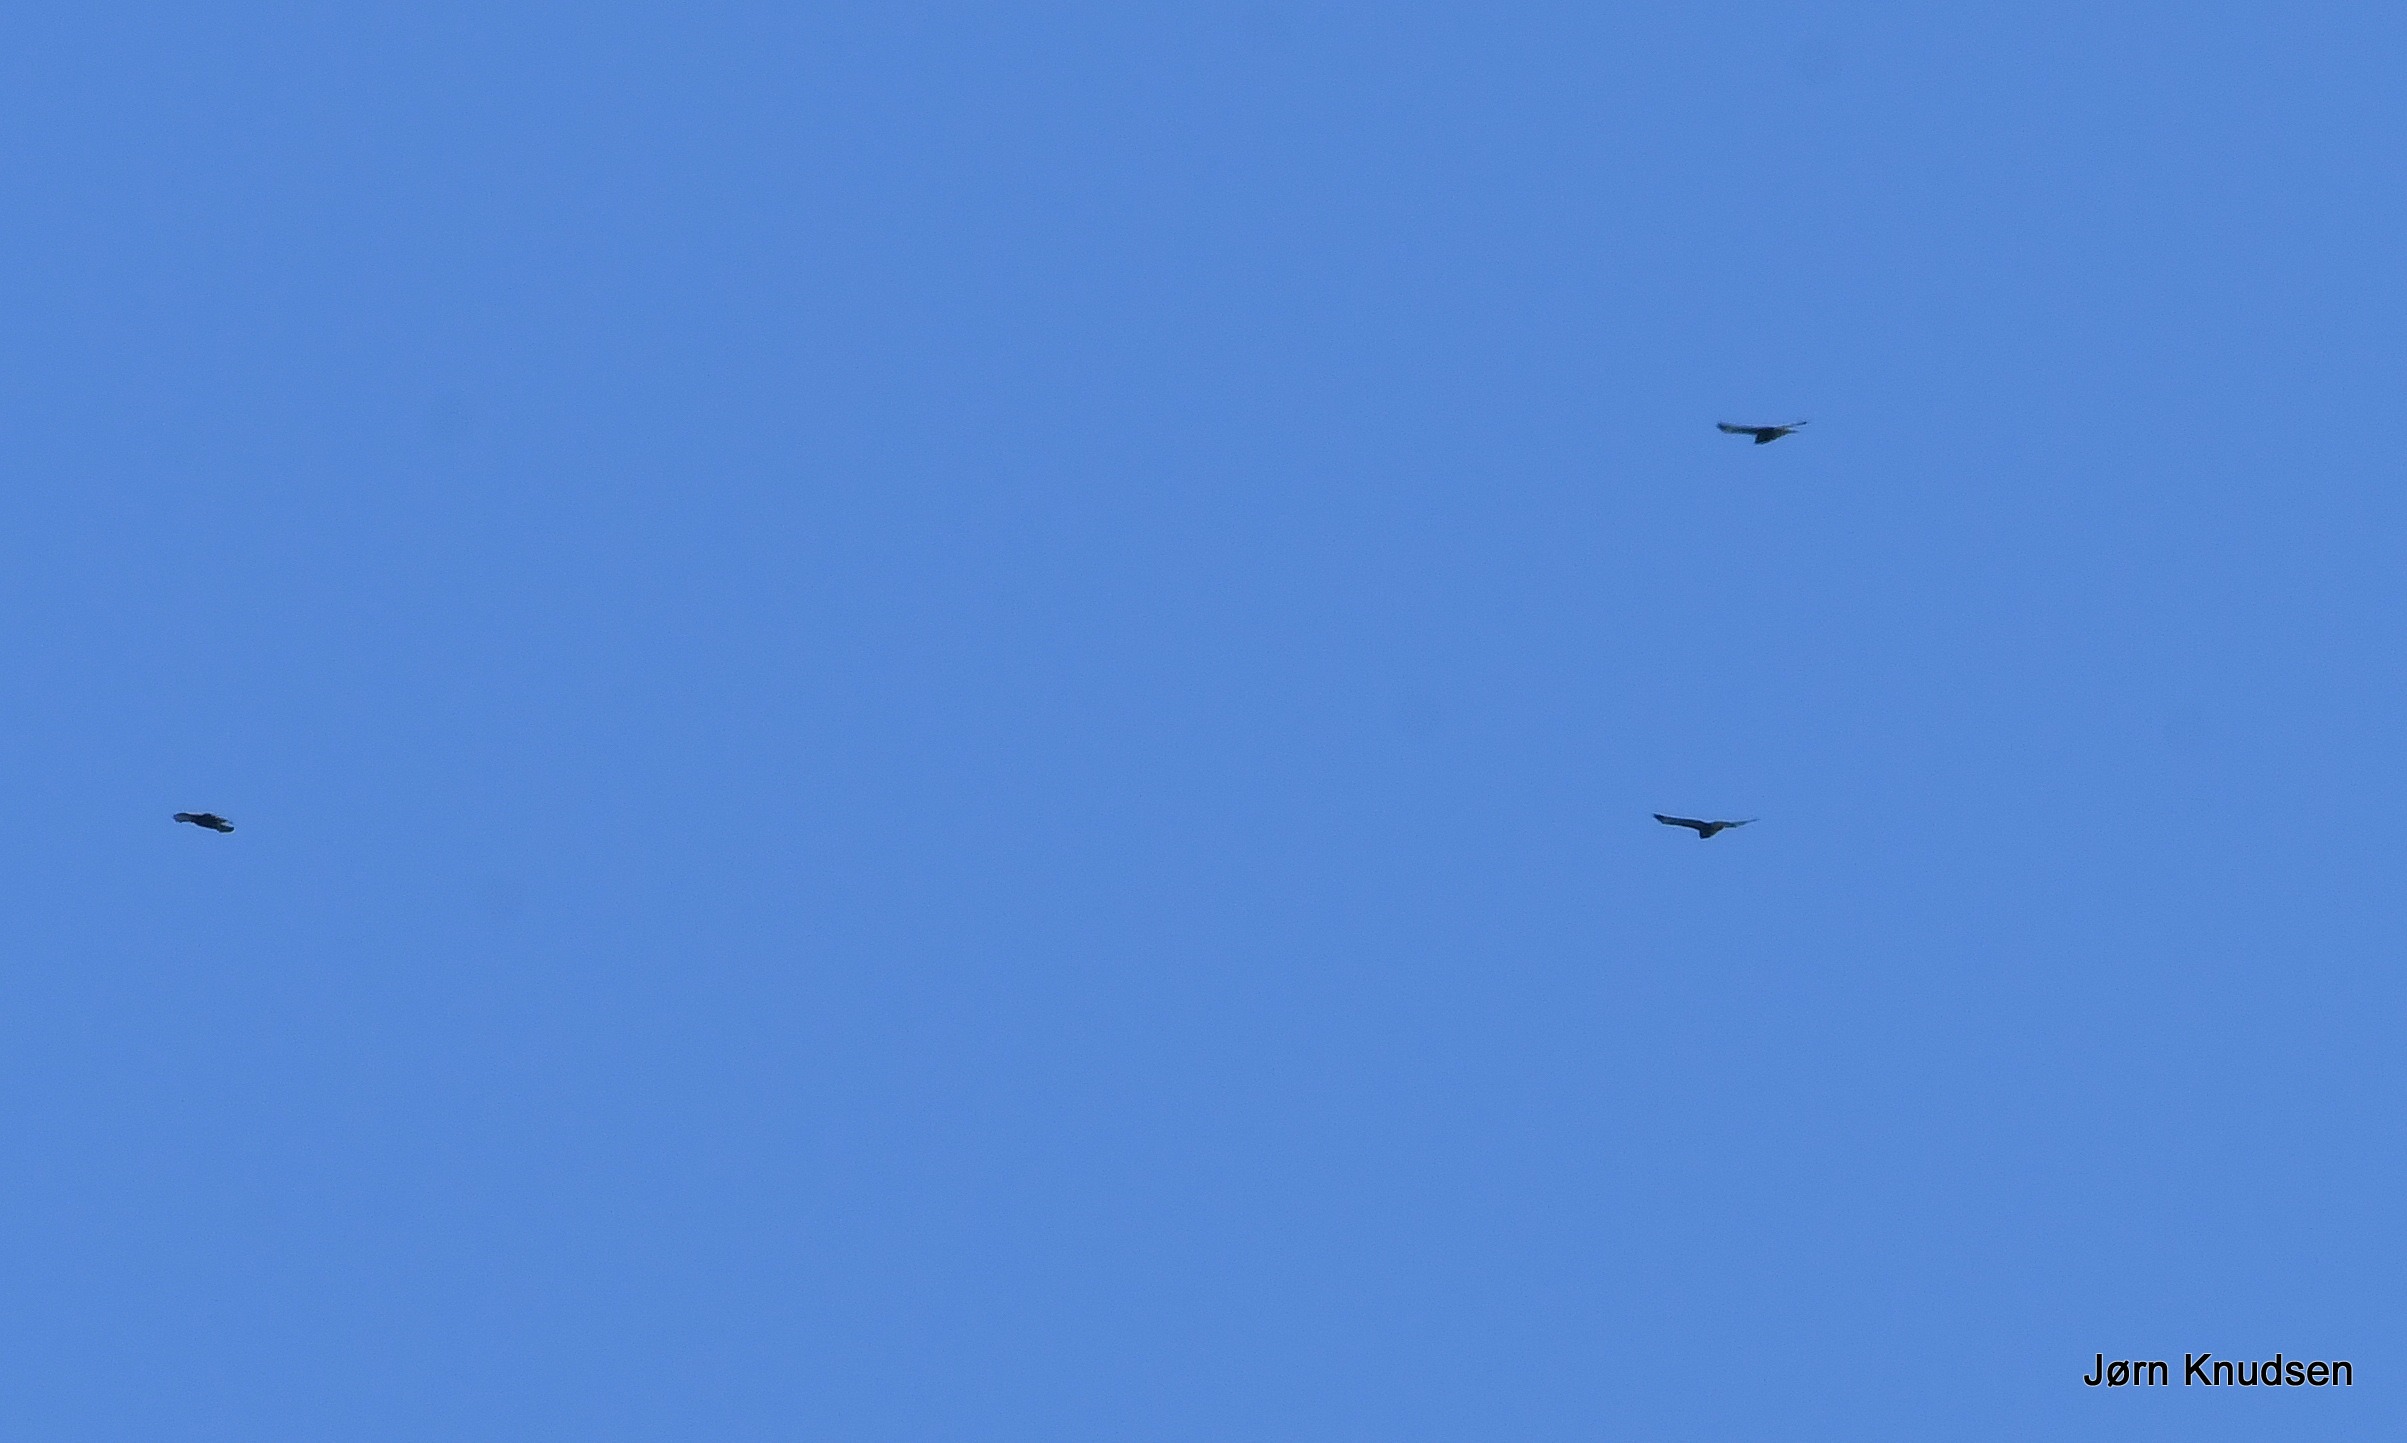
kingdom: Animalia
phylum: Chordata
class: Aves
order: Accipitriformes
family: Accipitridae
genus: Buteo
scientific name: Buteo buteo
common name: Musvåge
